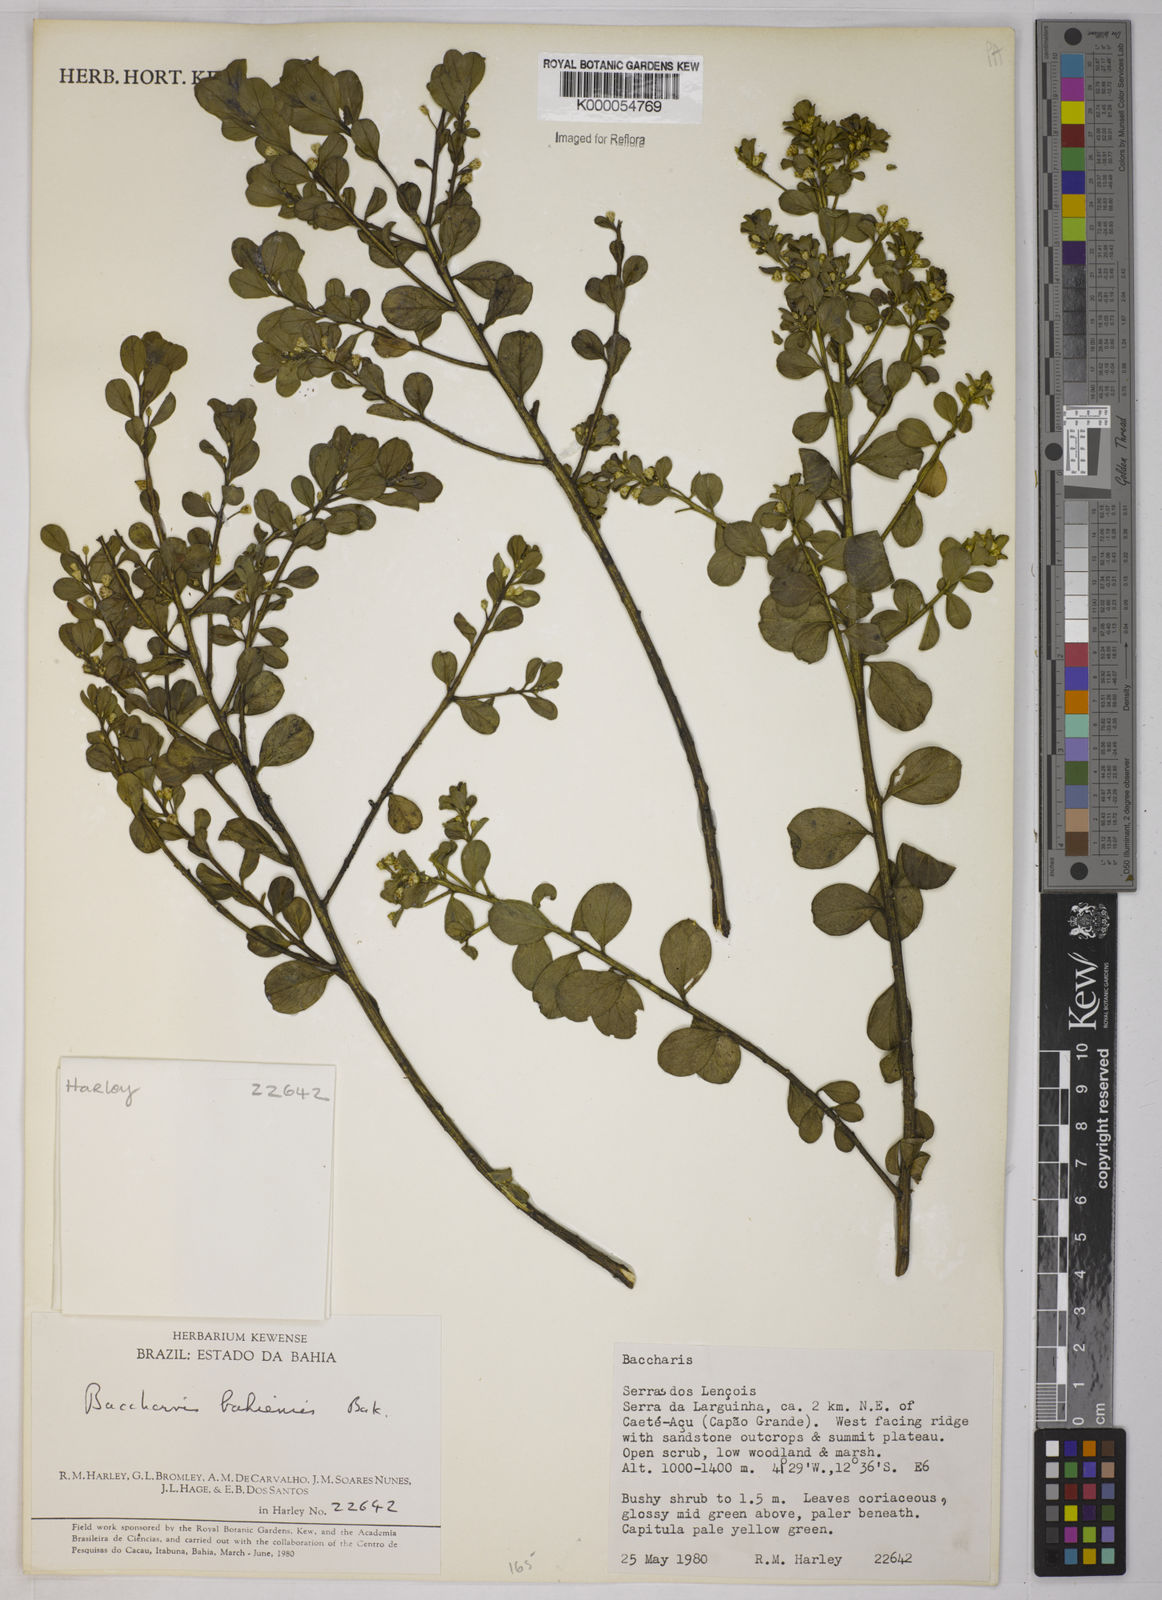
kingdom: Plantae
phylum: Tracheophyta
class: Magnoliopsida
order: Asterales
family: Asteraceae
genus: Baccharis
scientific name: Baccharis
